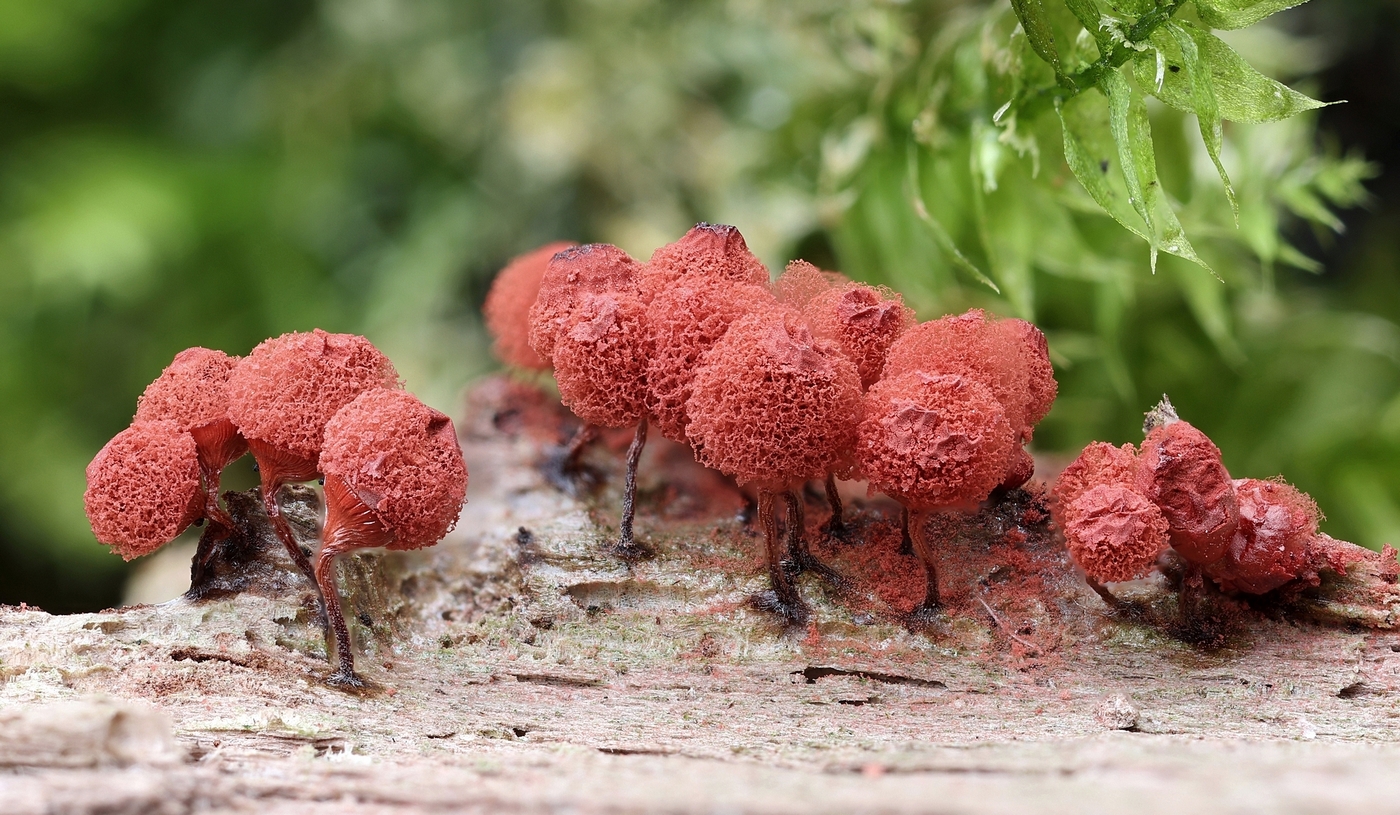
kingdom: Protozoa
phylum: Mycetozoa
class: Myxomycetes
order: Trichiales
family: Arcyriaceae
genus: Arcyria
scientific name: Arcyria denudata
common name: karminrød skålsvøb
